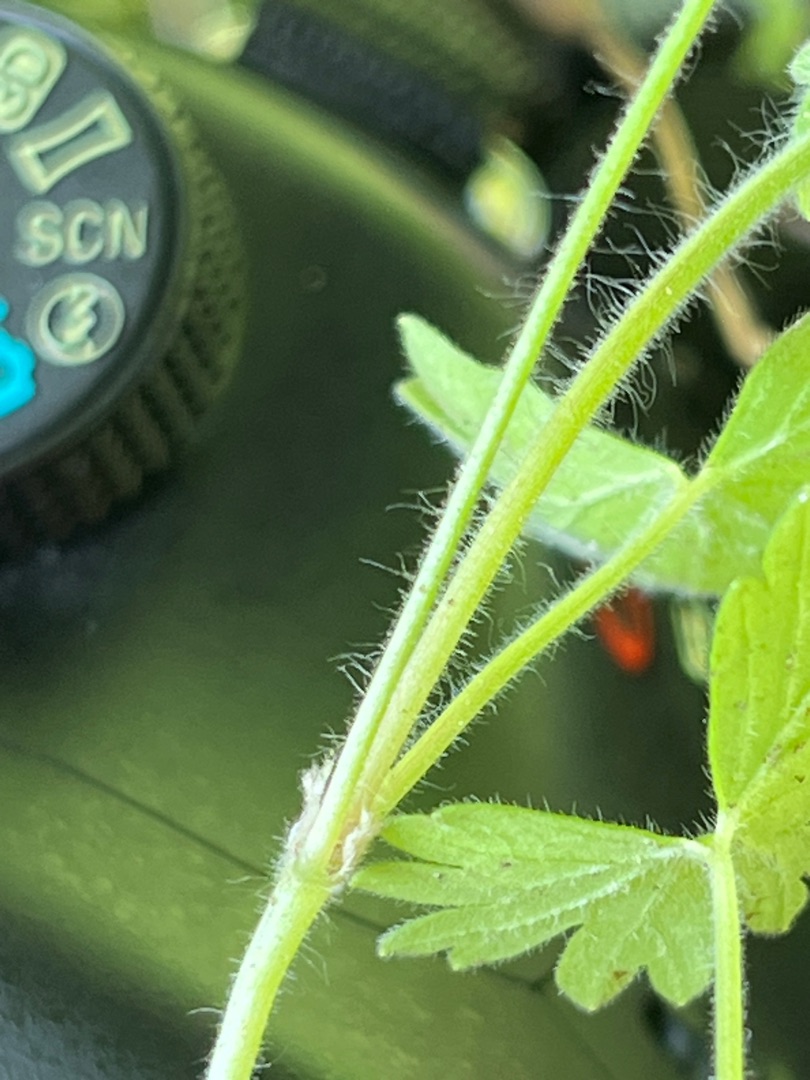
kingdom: Plantae
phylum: Tracheophyta
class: Magnoliopsida
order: Geraniales
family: Geraniaceae
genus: Geranium
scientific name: Geranium molle
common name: Blød storkenæb
